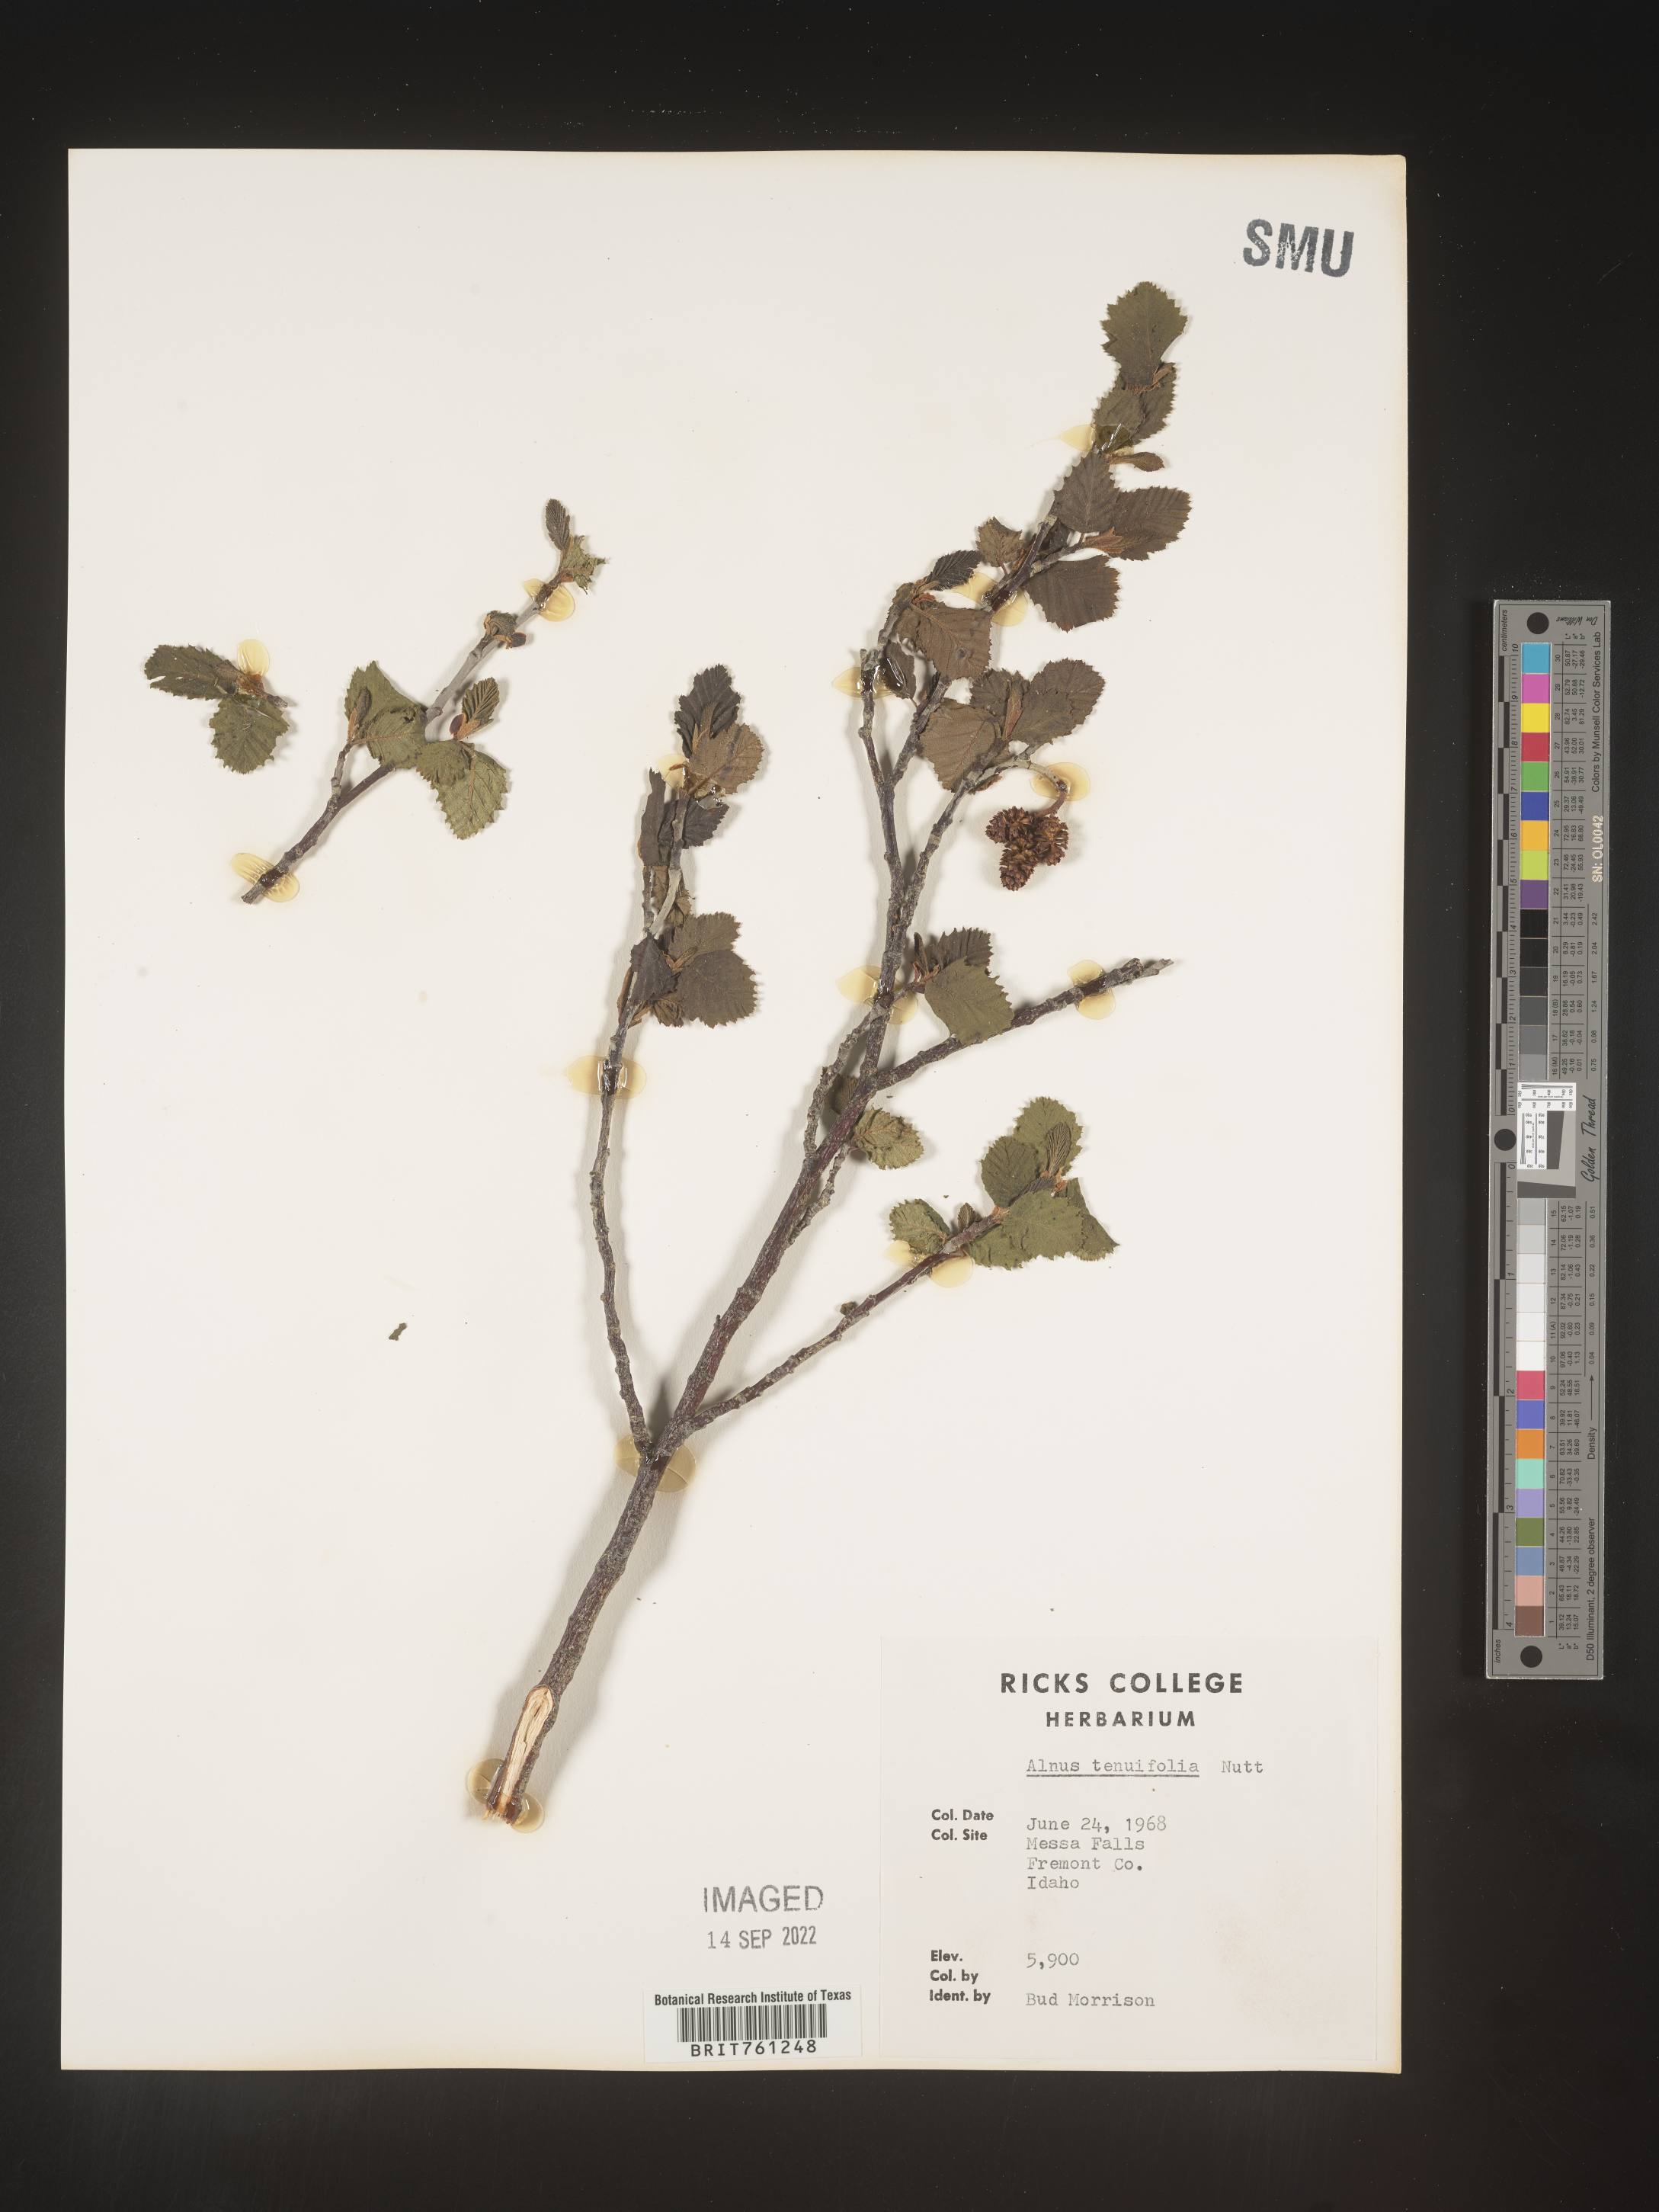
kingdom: Plantae
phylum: Tracheophyta
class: Magnoliopsida
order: Fagales
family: Betulaceae
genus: Alnus
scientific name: Alnus incana
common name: Grey alder
